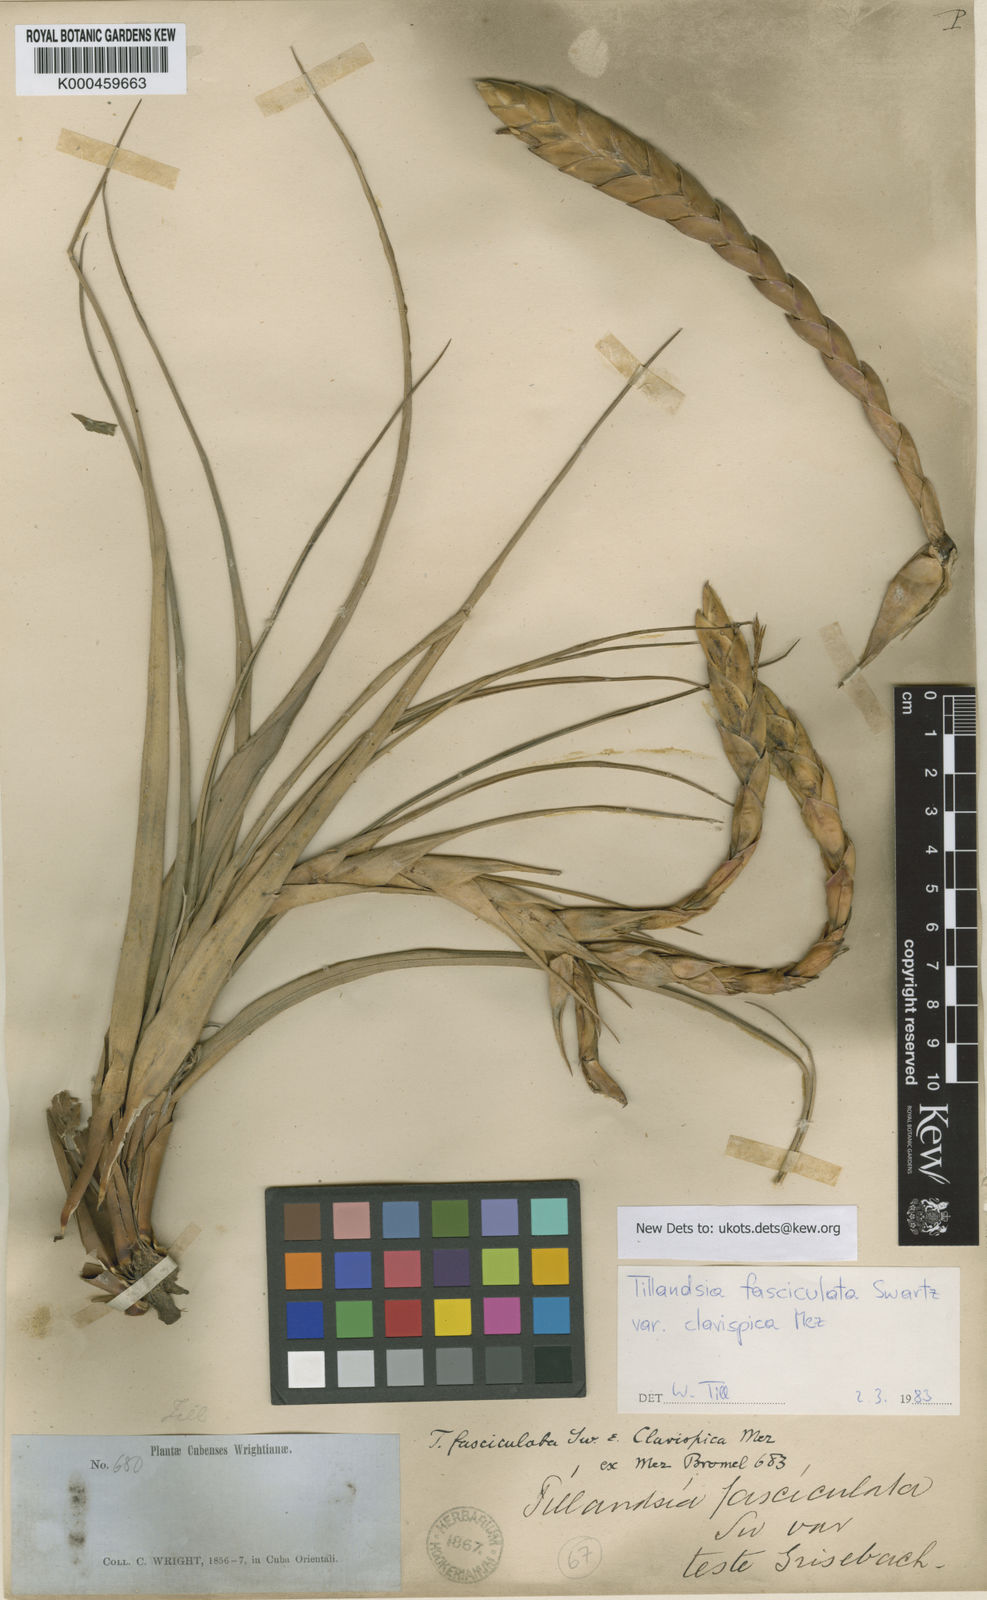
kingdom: Plantae
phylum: Tracheophyta
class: Liliopsida
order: Poales
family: Bromeliaceae
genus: Tillandsia
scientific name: Tillandsia fasciculata
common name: Giant airplant
